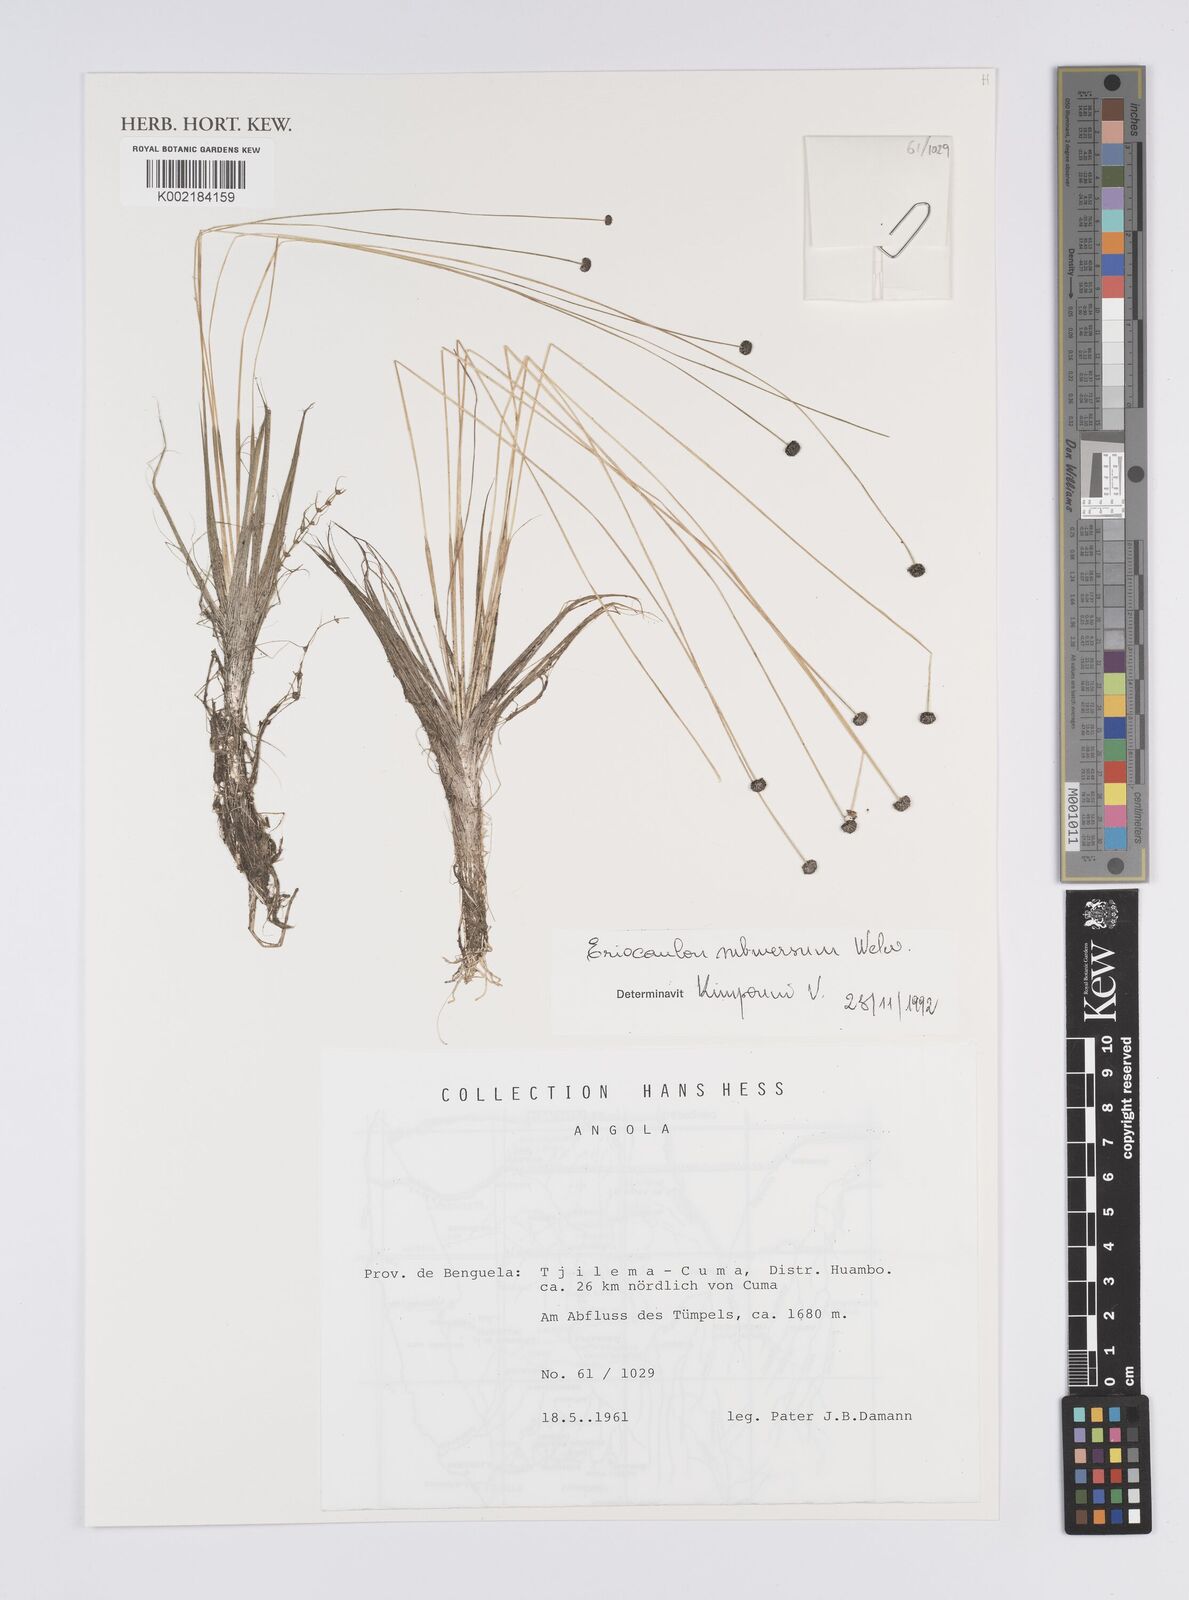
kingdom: Plantae
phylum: Tracheophyta
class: Liliopsida
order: Poales
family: Eriocaulaceae
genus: Eriocaulon
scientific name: Eriocaulon carsonii
